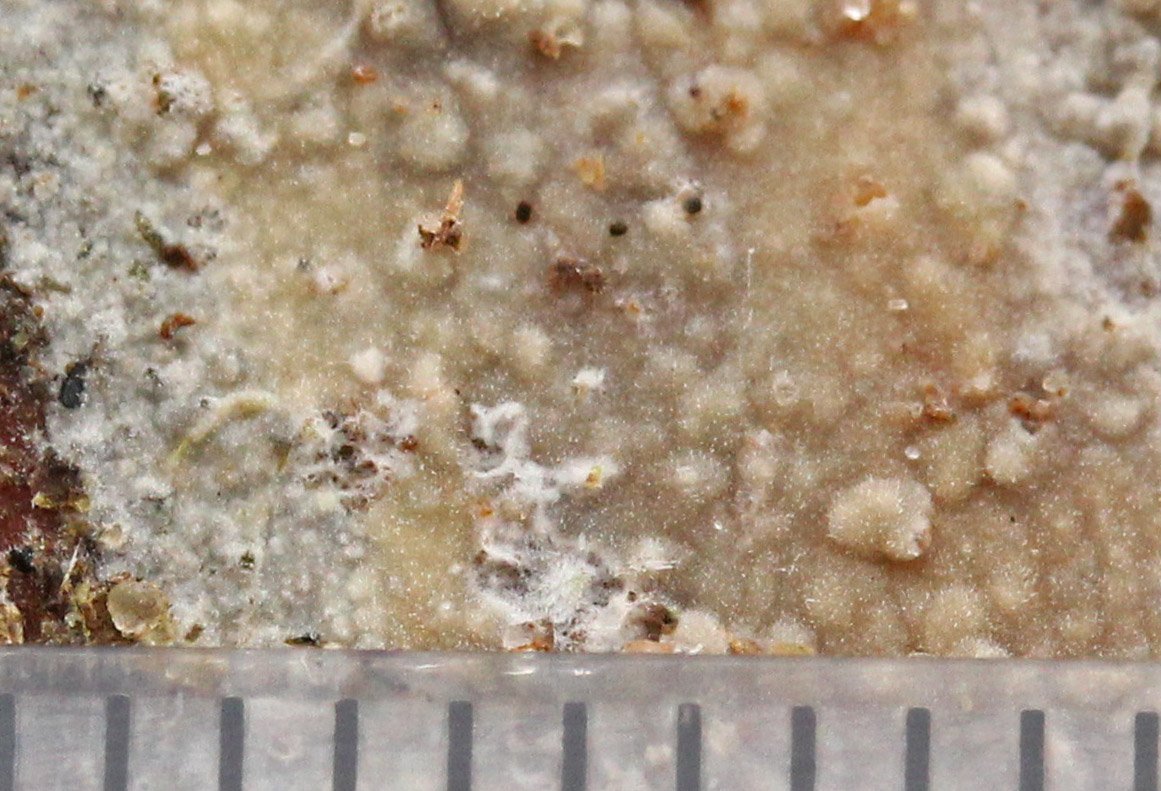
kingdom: Fungi
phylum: Basidiomycota
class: Agaricomycetes
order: Hymenochaetales
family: Rickenellaceae
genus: Peniophorella
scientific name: Peniophorella pubera
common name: dunet kalkskind
